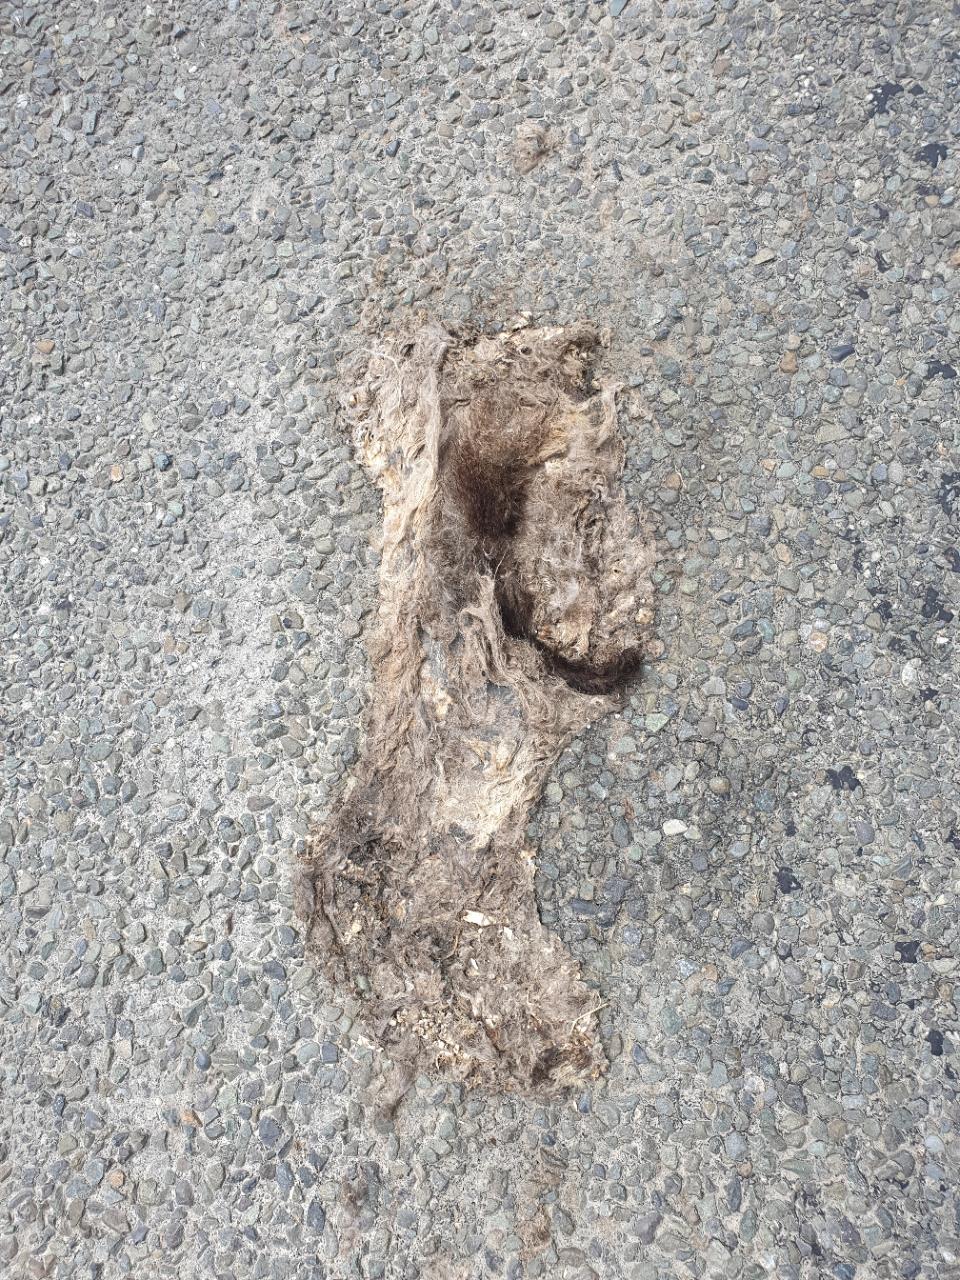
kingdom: Animalia
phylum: Chordata
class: Mammalia
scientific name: Mammalia
